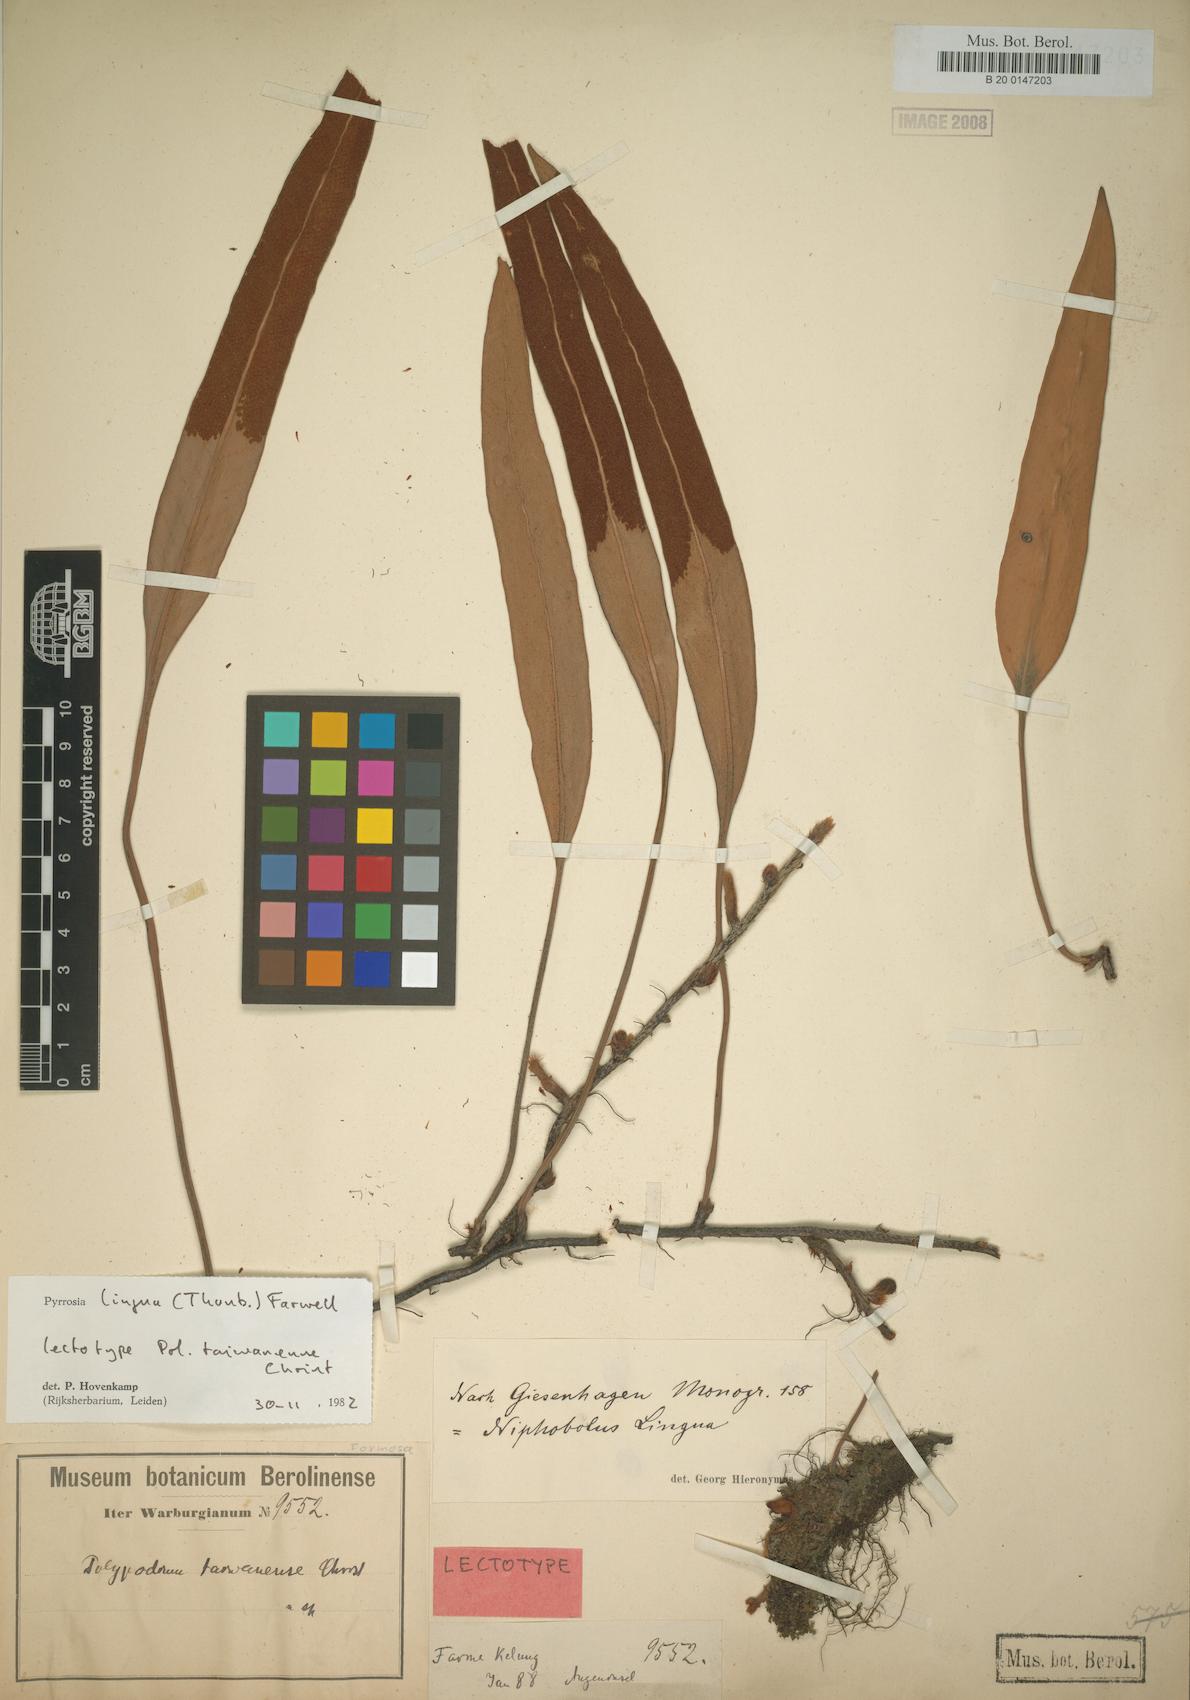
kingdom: Plantae
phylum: Tracheophyta
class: Polypodiopsida
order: Polypodiales
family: Polypodiaceae
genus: Pyrrosia
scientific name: Pyrrosia lingua
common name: Felt fern
